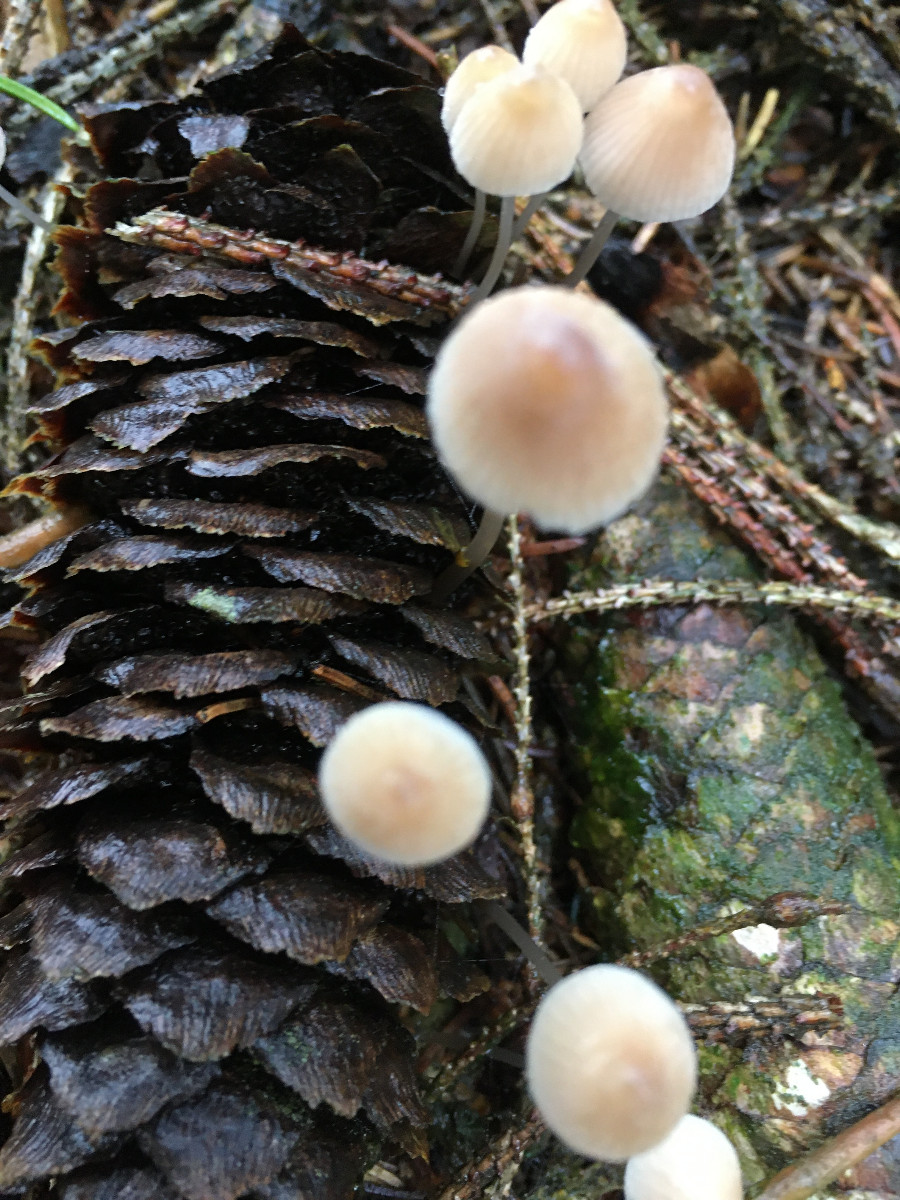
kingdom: Fungi
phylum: Basidiomycota
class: Agaricomycetes
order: Agaricales
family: Mycenaceae
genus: Mycena
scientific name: Mycena metata
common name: rødlig huesvamp
